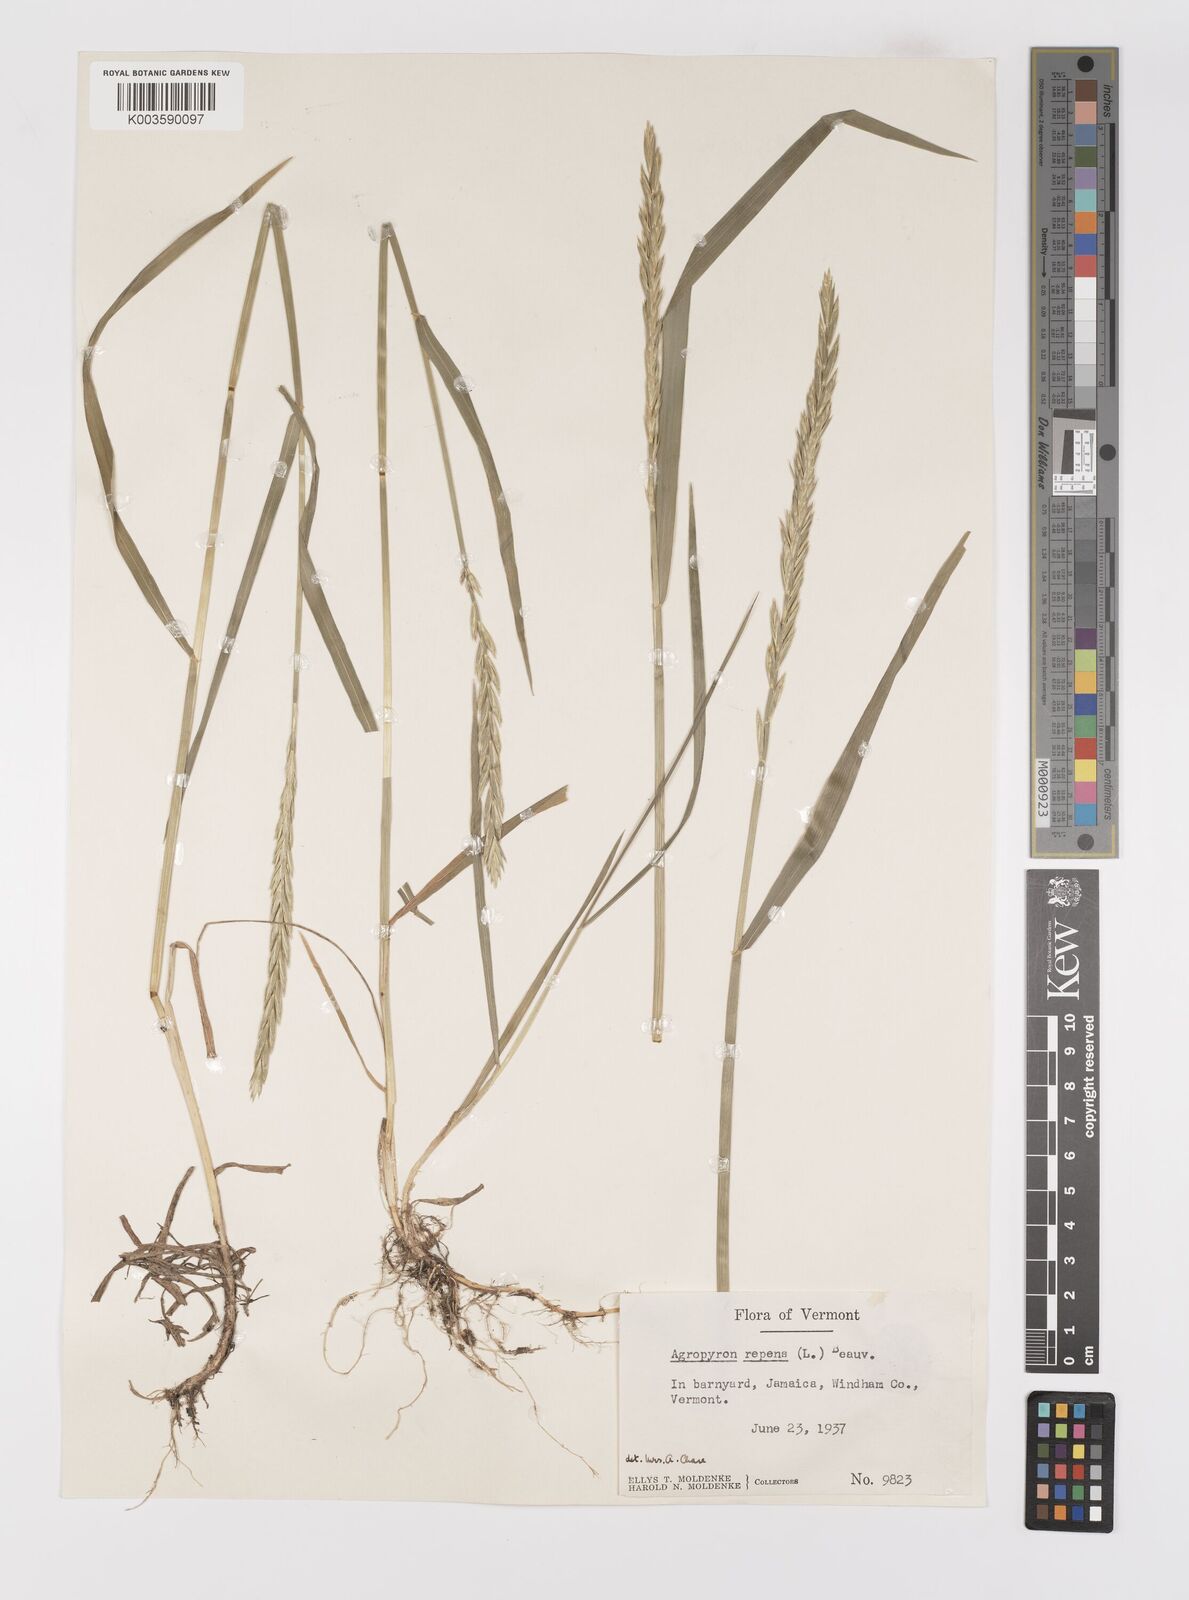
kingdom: Plantae
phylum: Tracheophyta
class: Liliopsida
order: Poales
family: Poaceae
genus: Elymus
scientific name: Elymus repens
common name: Quackgrass
